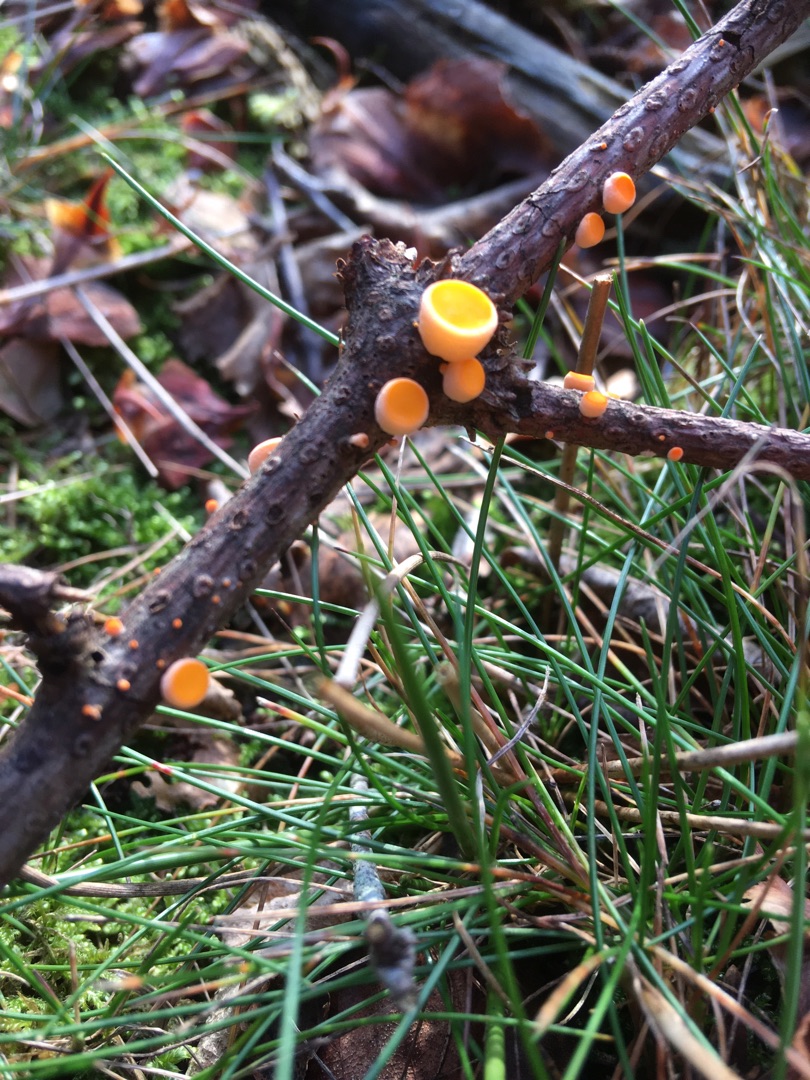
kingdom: Fungi
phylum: Ascomycota
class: Pezizomycetes
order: Pezizales
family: Sarcoscyphaceae
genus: Pithya
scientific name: Pithya vulgaris
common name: Stor dukatbæger
